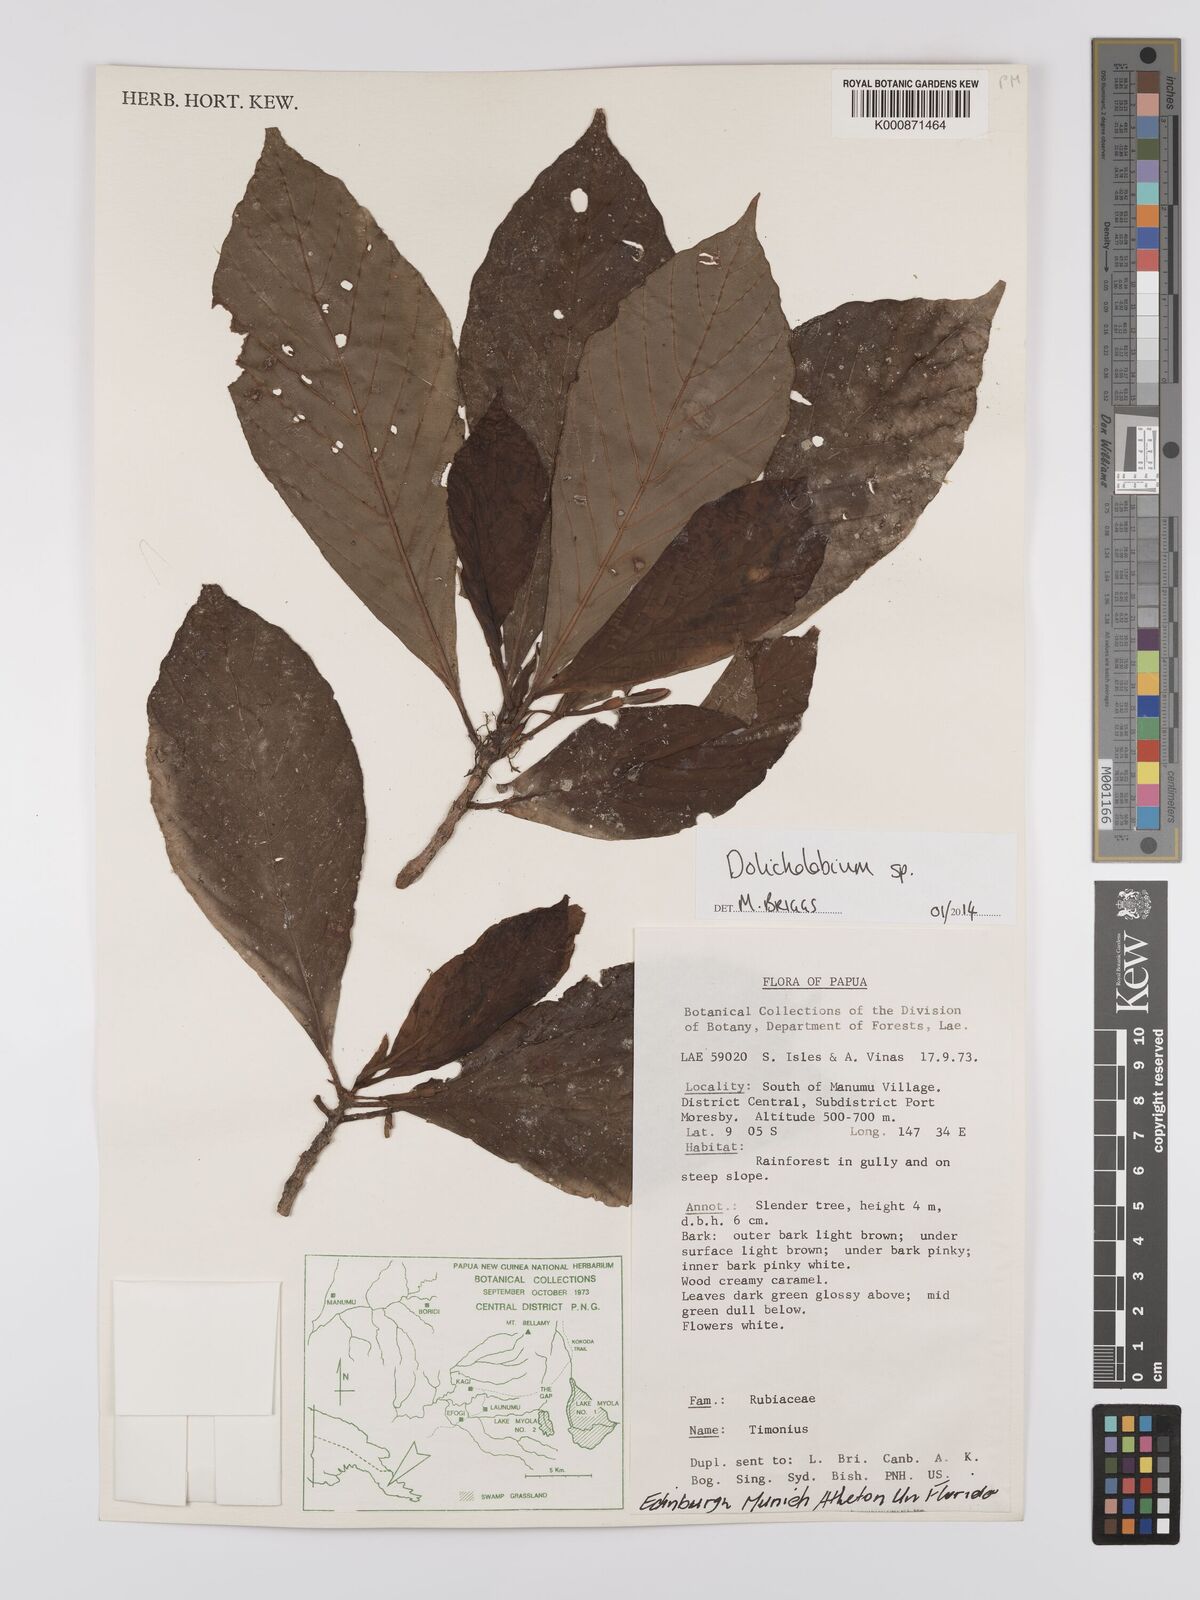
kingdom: Plantae
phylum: Tracheophyta
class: Magnoliopsida
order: Gentianales
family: Rubiaceae
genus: Dolicholobium
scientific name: Dolicholobium
